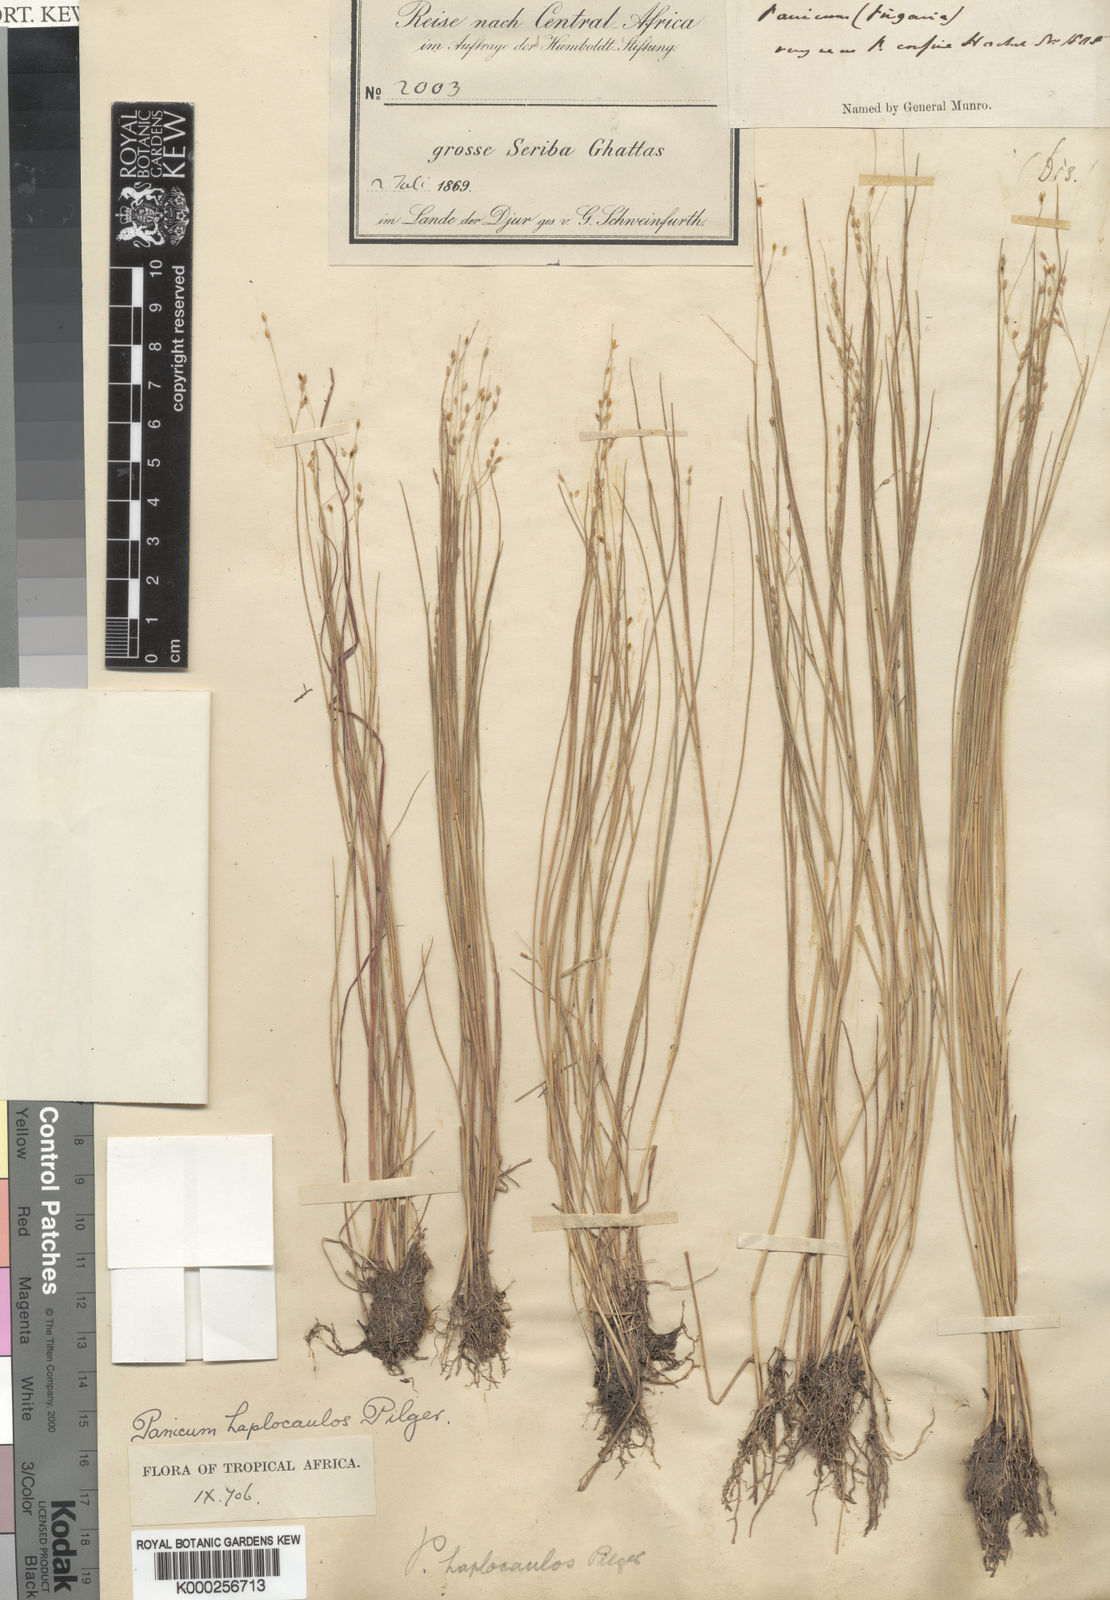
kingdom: Plantae
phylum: Tracheophyta
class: Liliopsida
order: Poales
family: Poaceae
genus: Panicum
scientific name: Panicum haplocaulos
